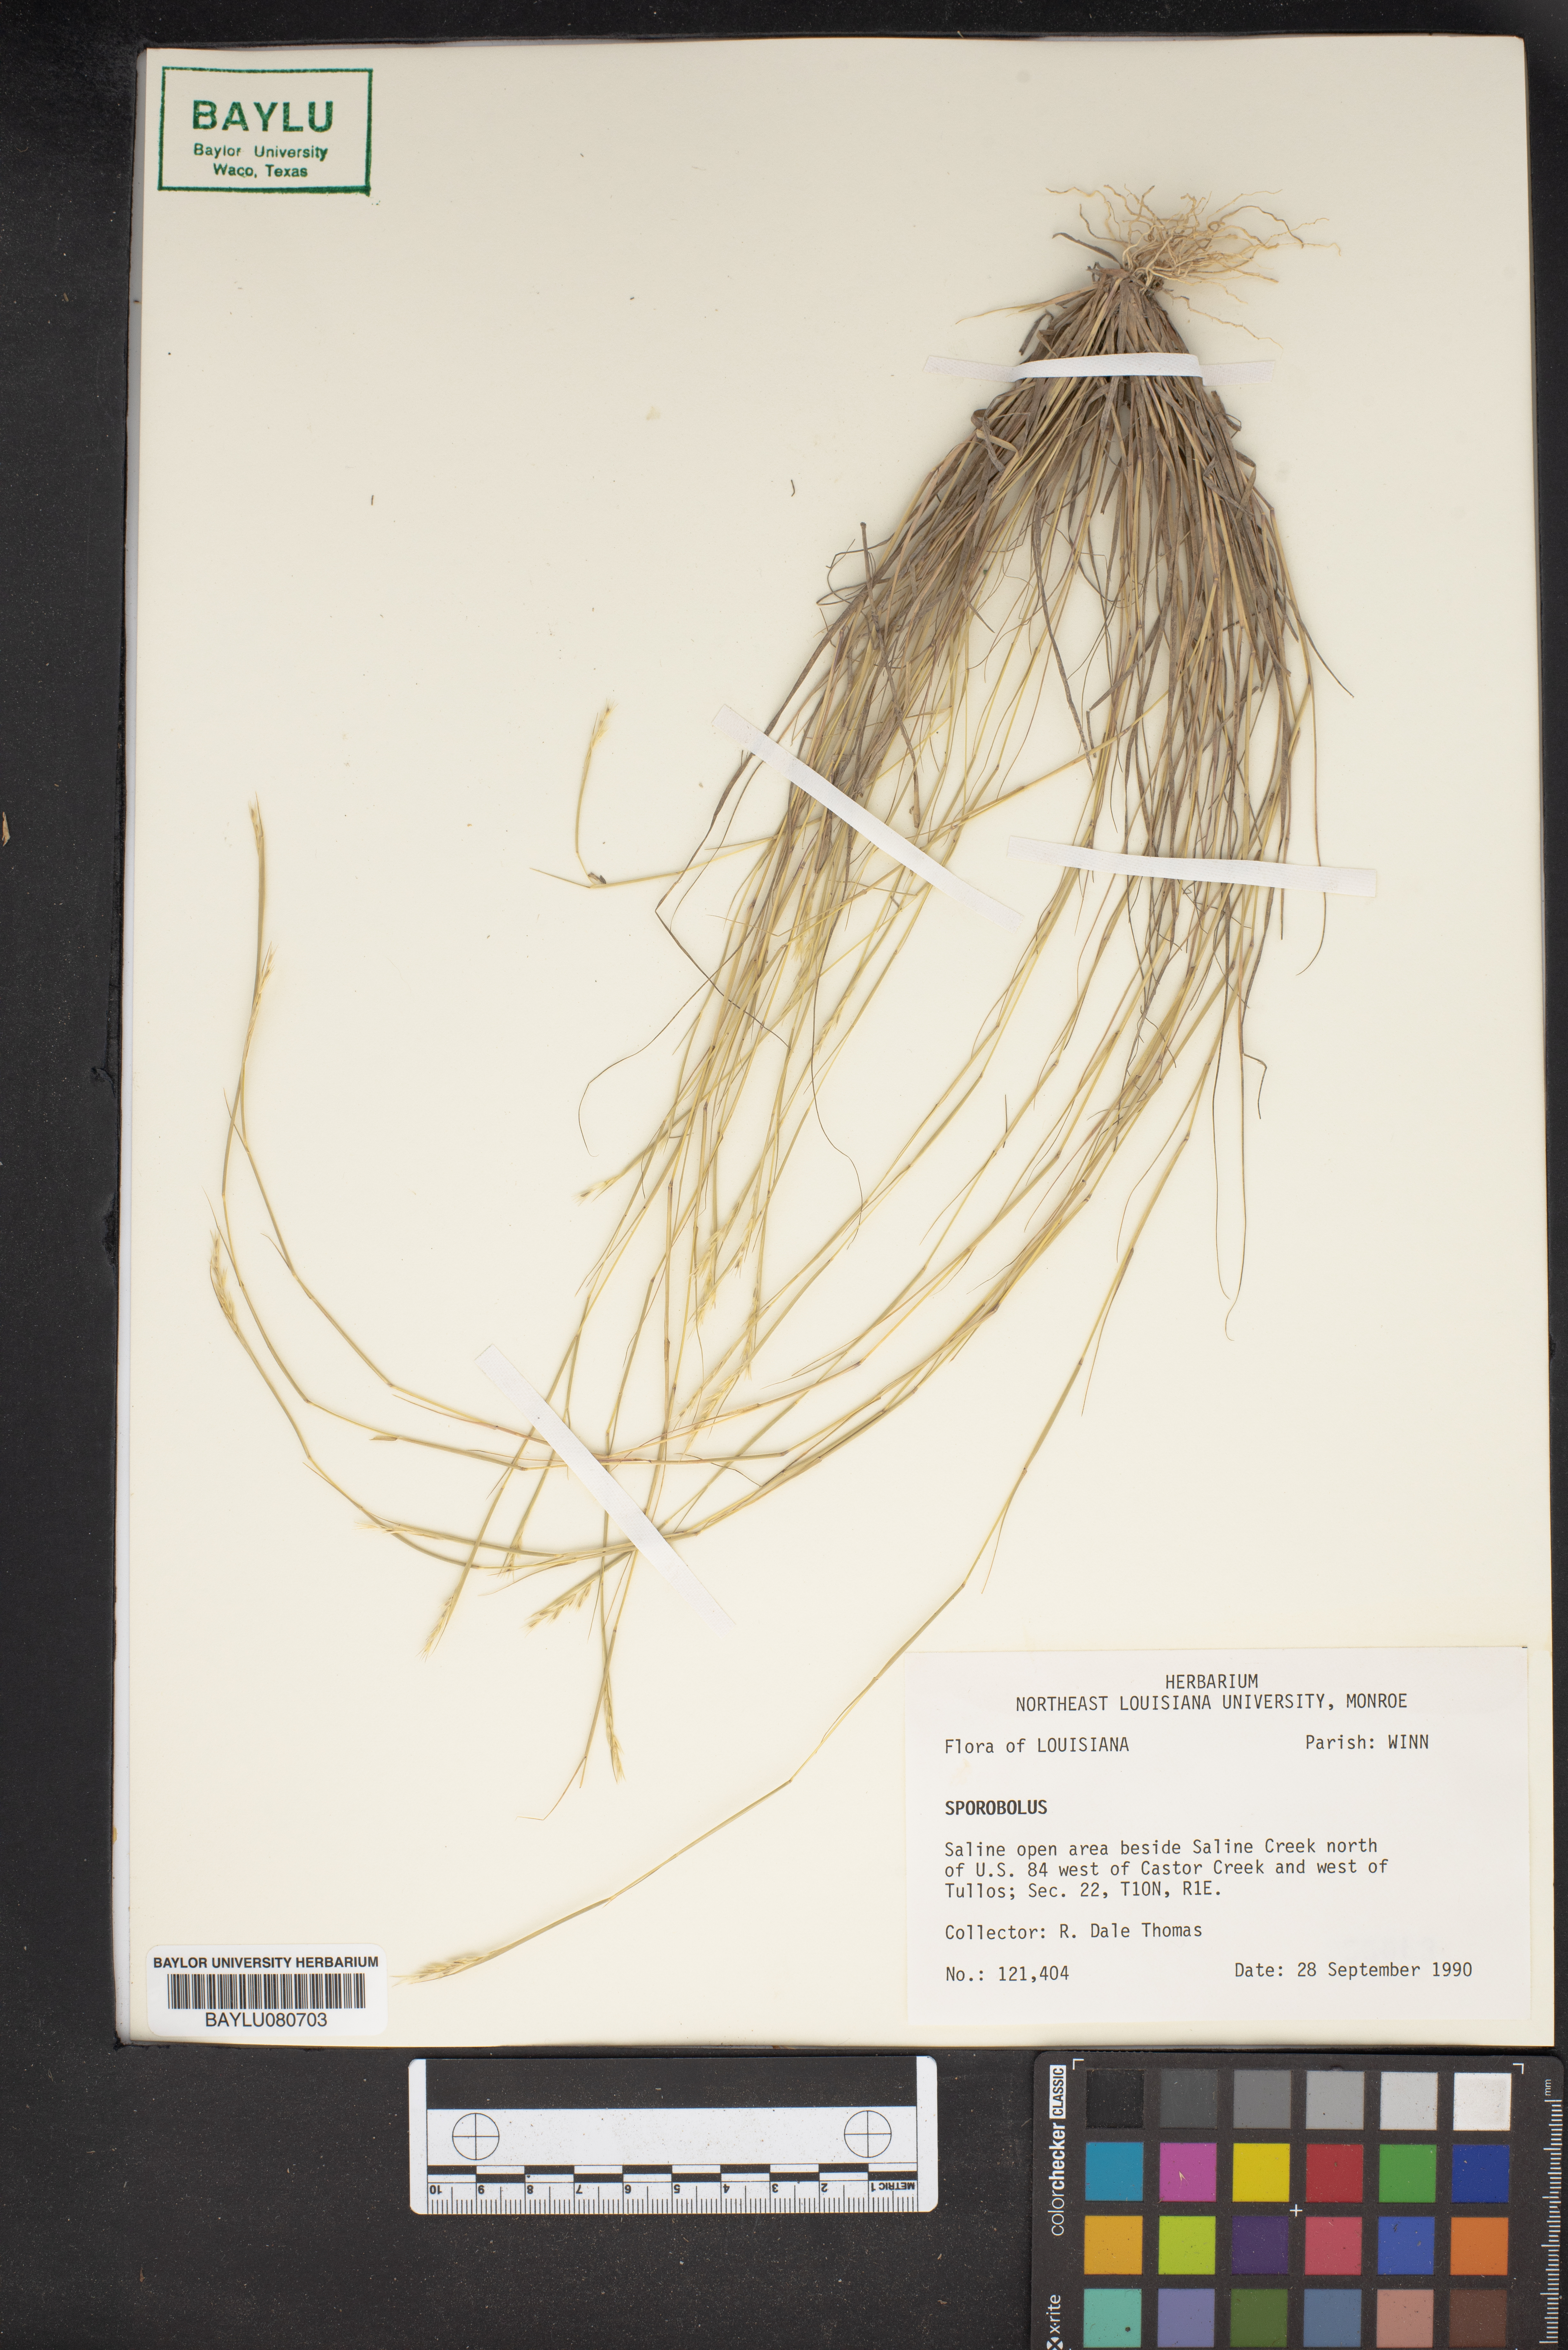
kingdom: Plantae
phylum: Tracheophyta
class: Liliopsida
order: Poales
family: Poaceae
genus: Sporobolus
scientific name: Sporobolus
